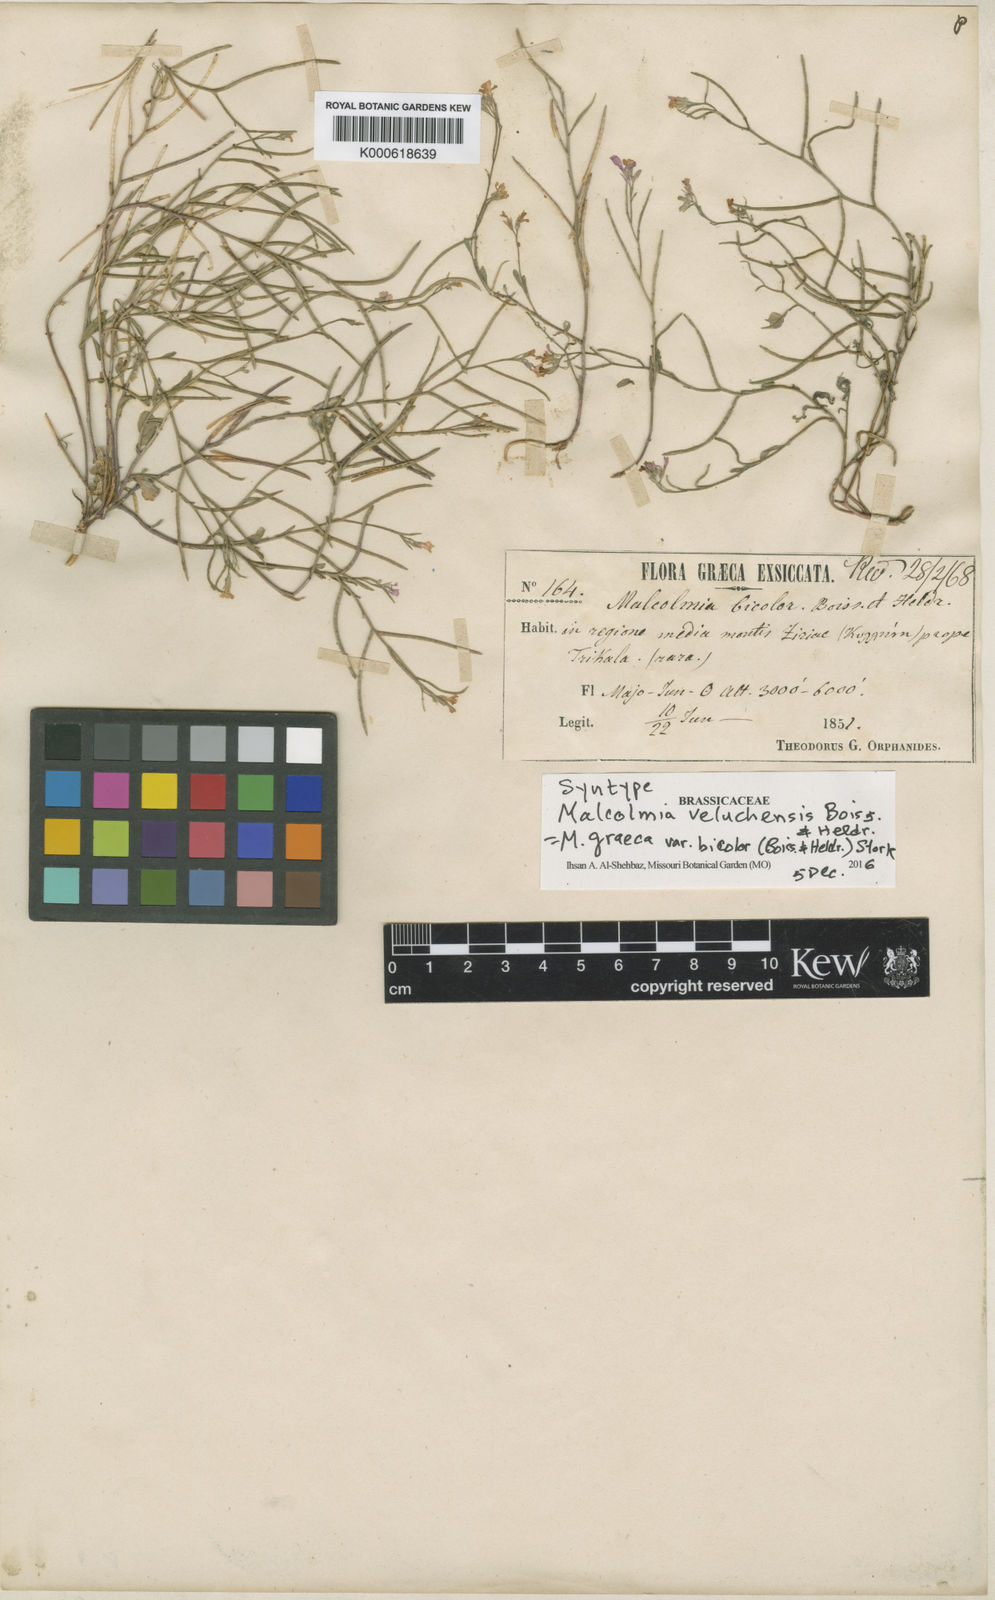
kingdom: Plantae
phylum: Tracheophyta
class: Magnoliopsida
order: Brassicales
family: Brassicaceae
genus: Malcolmia
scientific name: Malcolmia graeca
